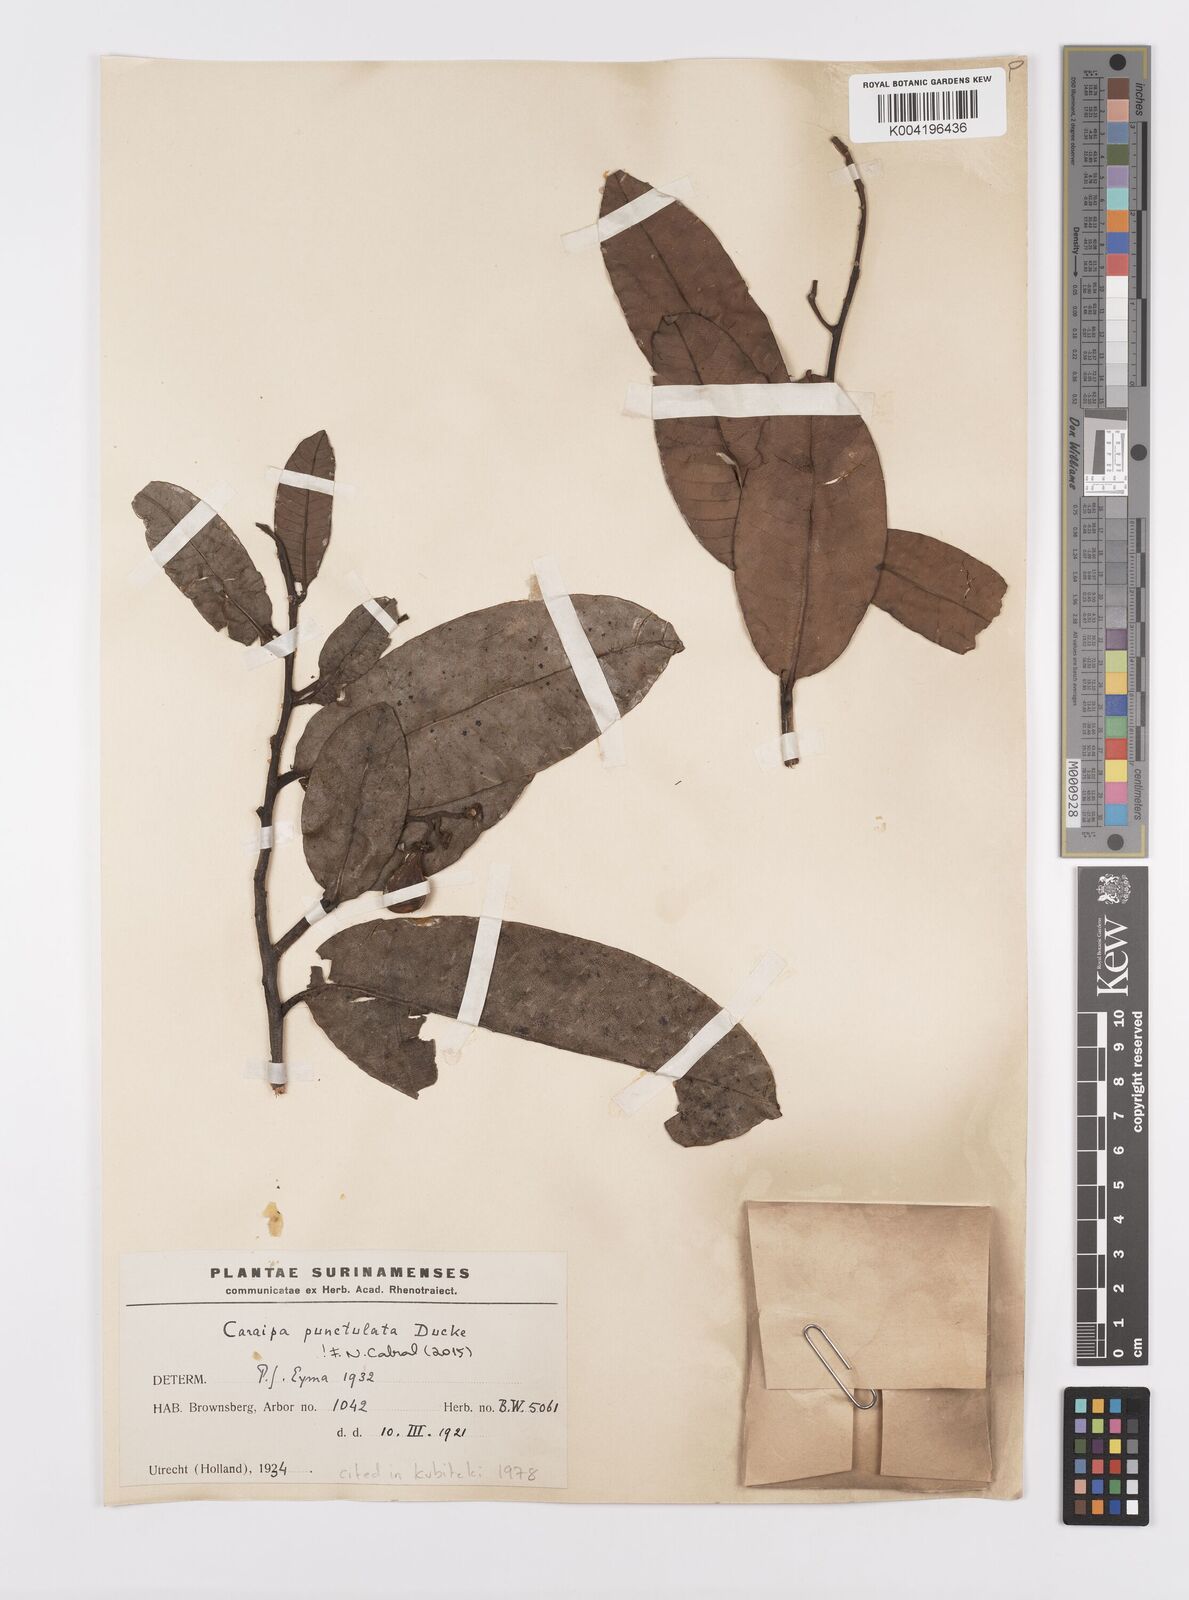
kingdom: Plantae
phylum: Tracheophyta
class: Magnoliopsida
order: Malpighiales
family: Calophyllaceae
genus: Caraipa
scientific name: Caraipa punctulata
